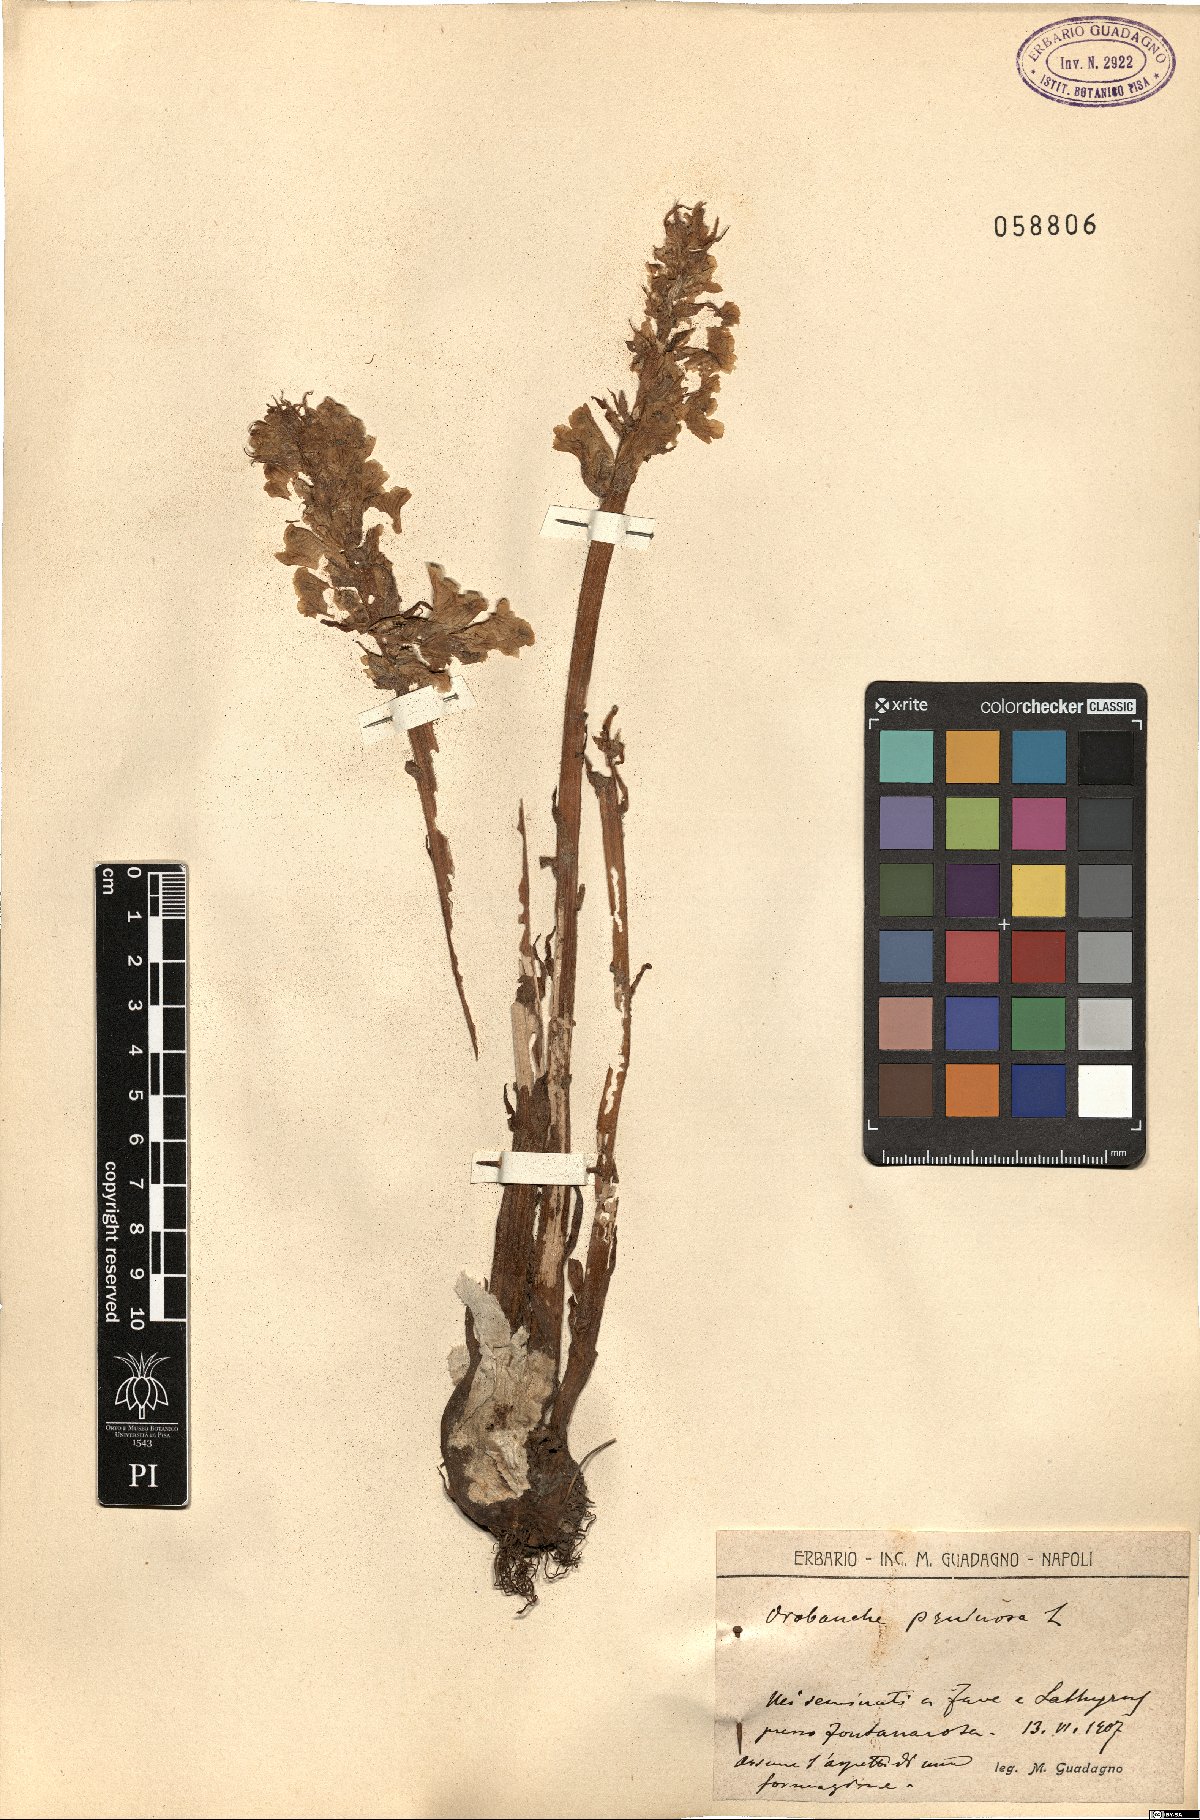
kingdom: Plantae
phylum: Tracheophyta
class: Magnoliopsida
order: Lamiales
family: Orobanchaceae
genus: Orobanche
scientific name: Orobanche crenata
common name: Bean broomrape
